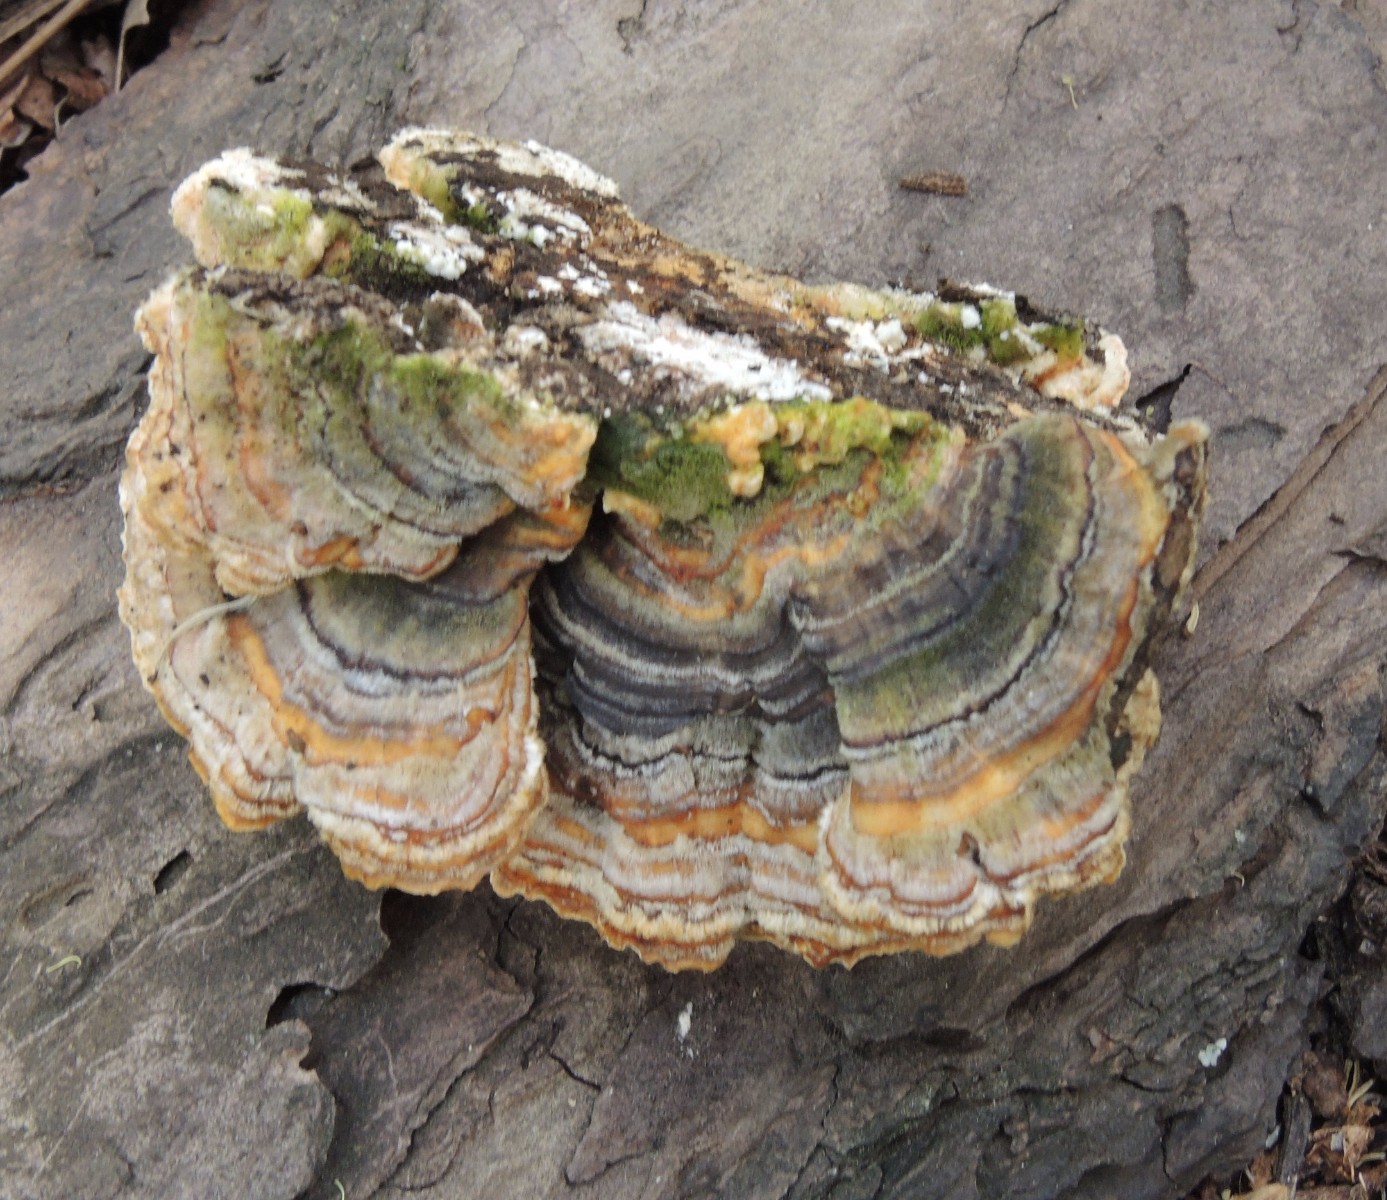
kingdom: Fungi
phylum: Basidiomycota
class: Agaricomycetes
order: Polyporales
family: Polyporaceae
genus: Trametes
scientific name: Trametes versicolor
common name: broget læderporesvamp
